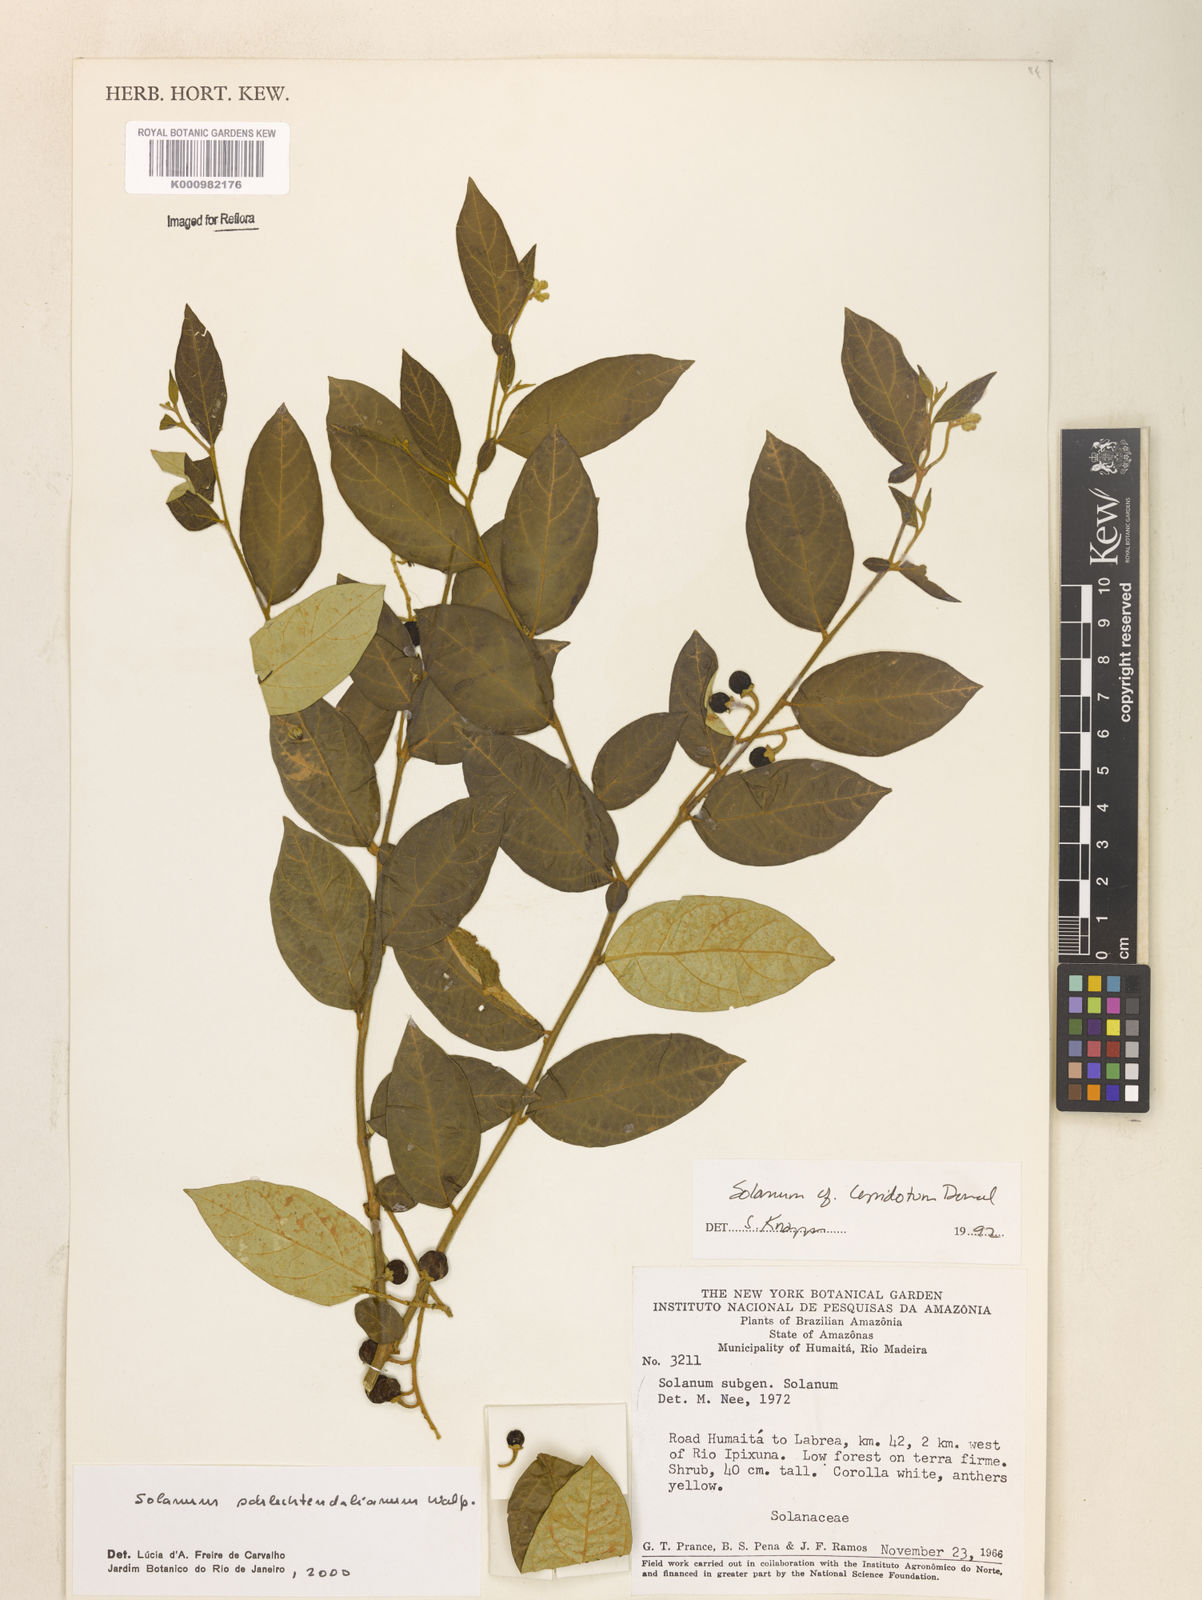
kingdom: Plantae
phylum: Tracheophyta
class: Magnoliopsida
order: Solanales
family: Solanaceae
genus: Solanum
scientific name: Solanum schlechtendalianum
